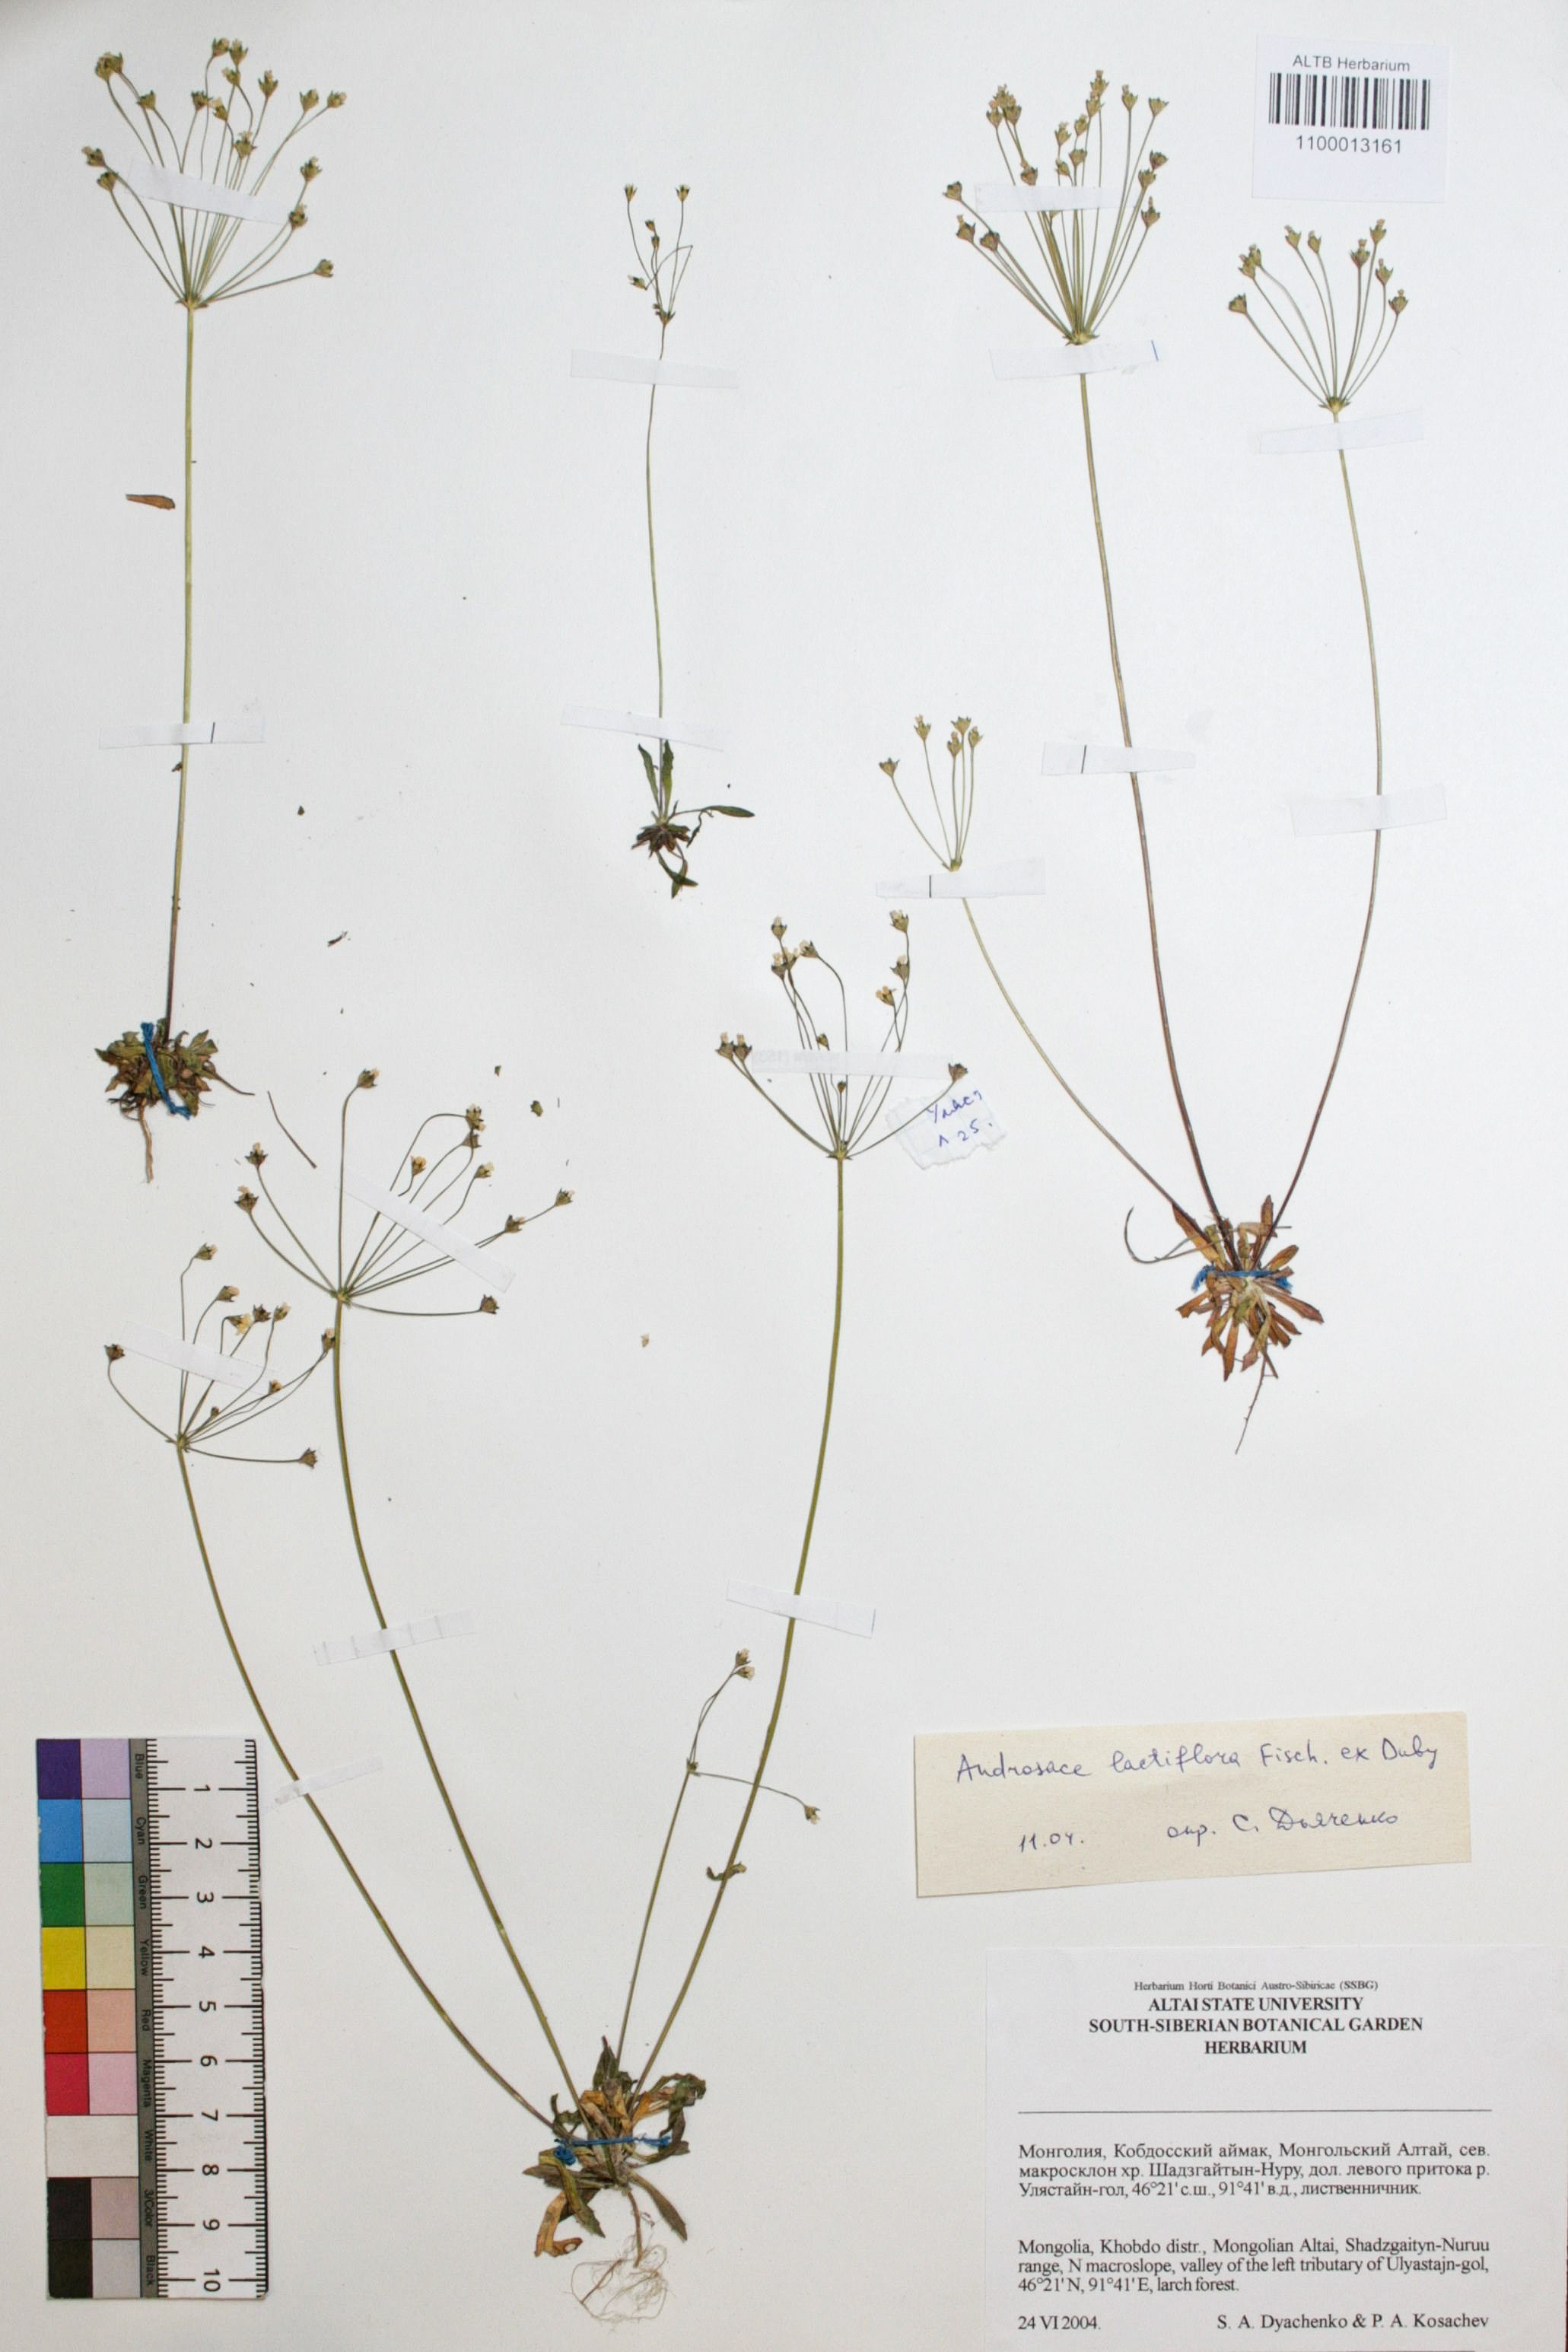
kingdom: Plantae
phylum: Tracheophyta
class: Magnoliopsida
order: Ericales
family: Primulaceae
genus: Androsace
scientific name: Androsace lactiflora
